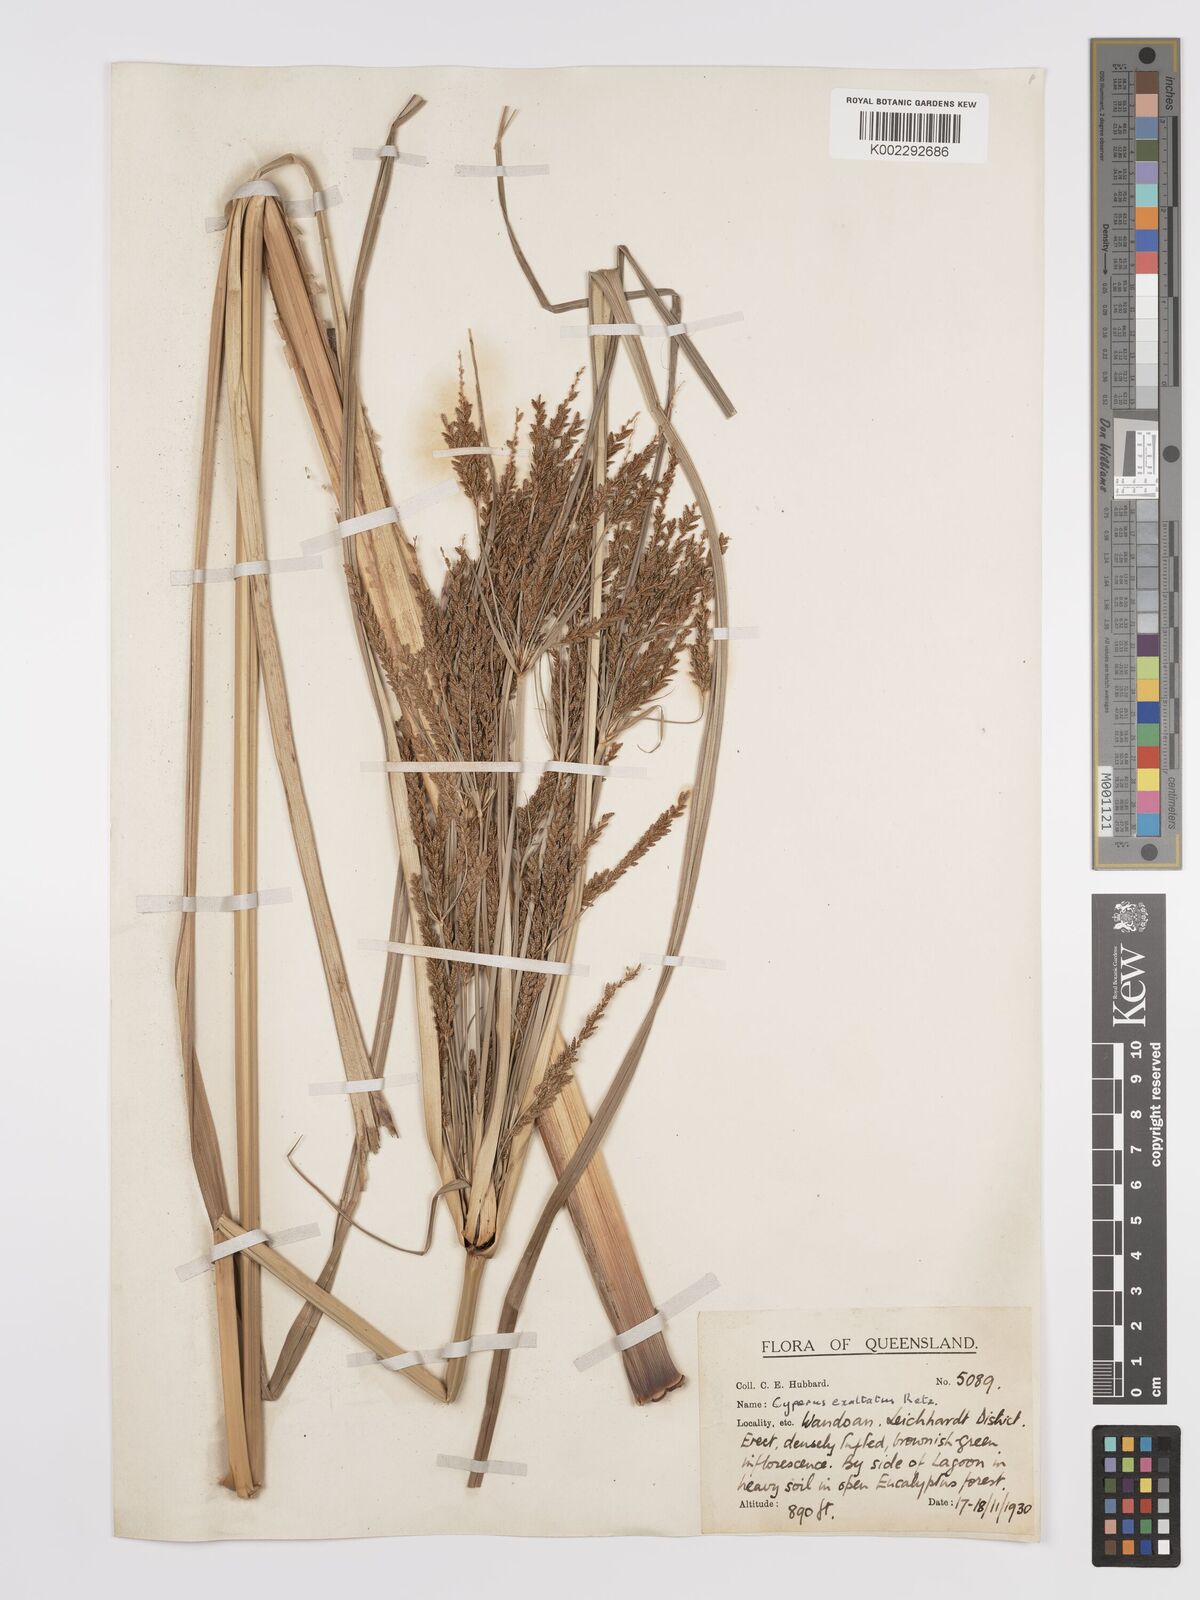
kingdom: Plantae
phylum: Tracheophyta
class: Liliopsida
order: Poales
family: Cyperaceae
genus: Cyperus
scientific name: Cyperus exaltatus
